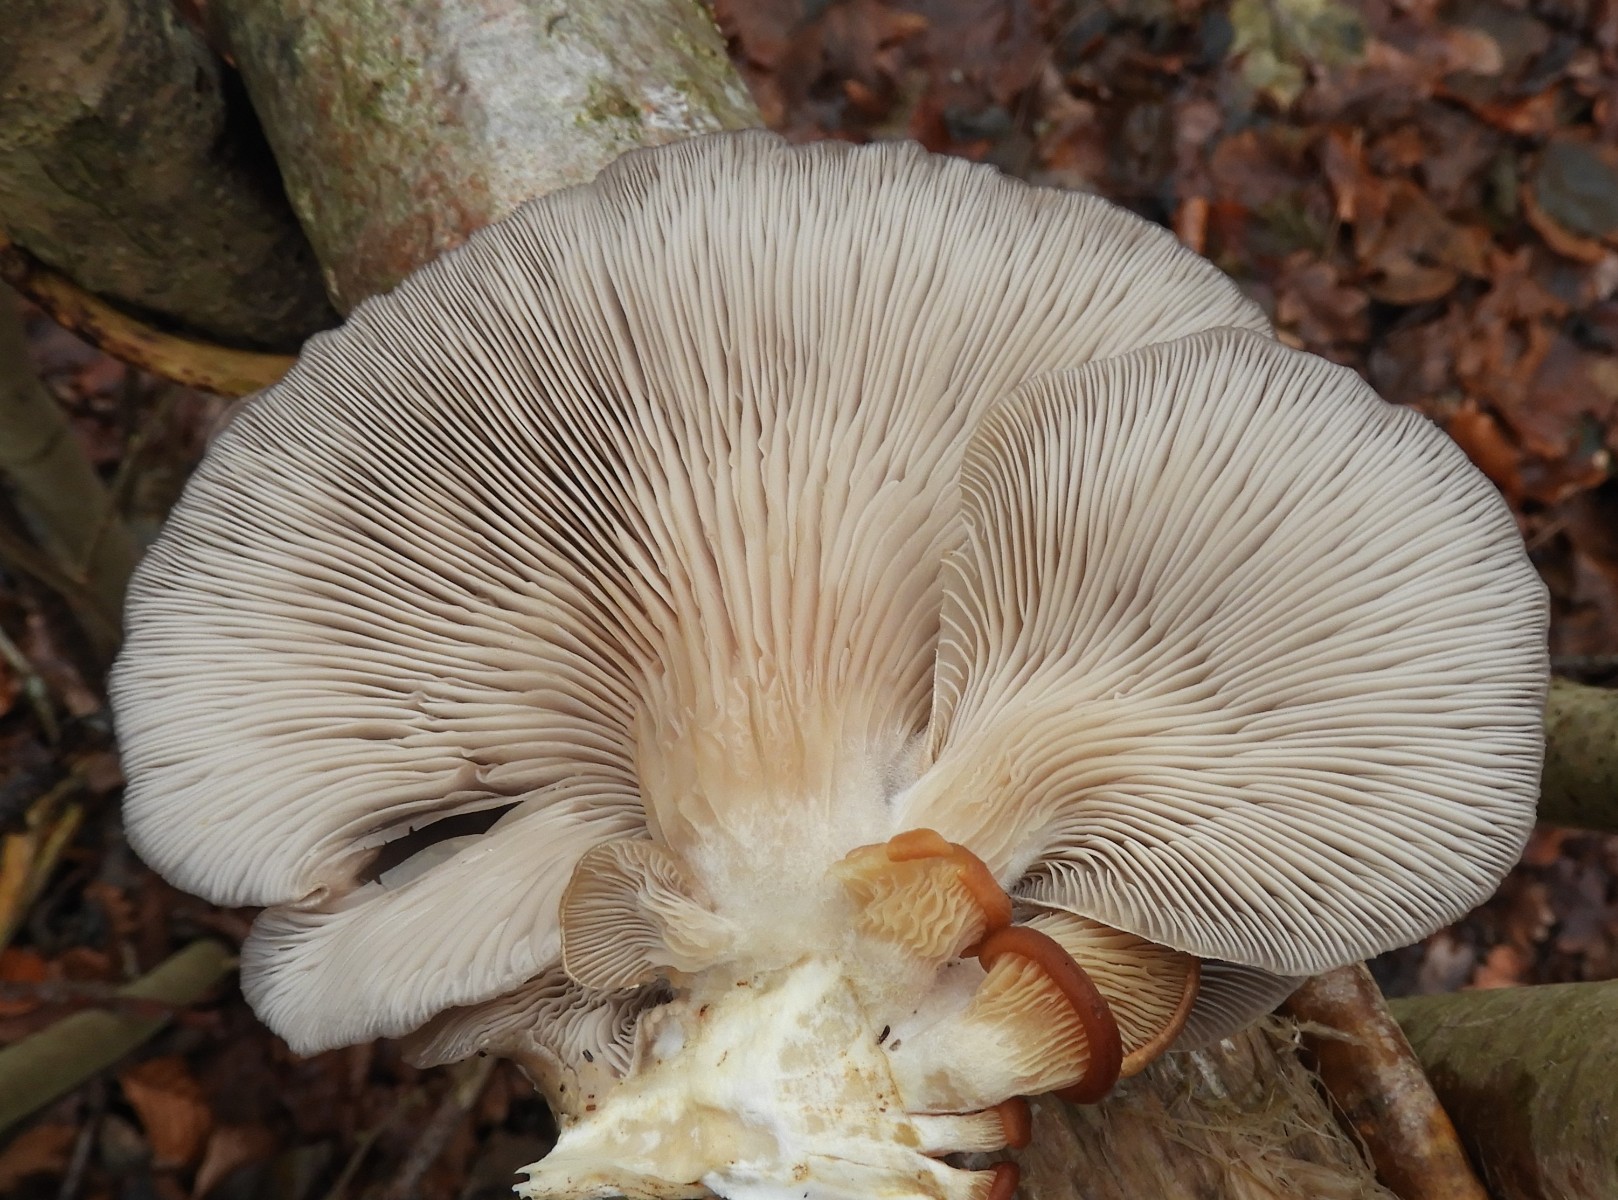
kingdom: Fungi
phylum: Basidiomycota
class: Agaricomycetes
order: Agaricales
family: Pleurotaceae
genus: Pleurotus
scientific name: Pleurotus ostreatus
